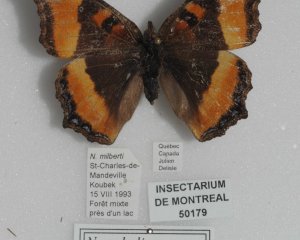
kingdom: Animalia
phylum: Arthropoda
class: Insecta
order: Lepidoptera
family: Nymphalidae
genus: Aglais
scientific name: Aglais milberti
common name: Milbert's Tortoiseshell
